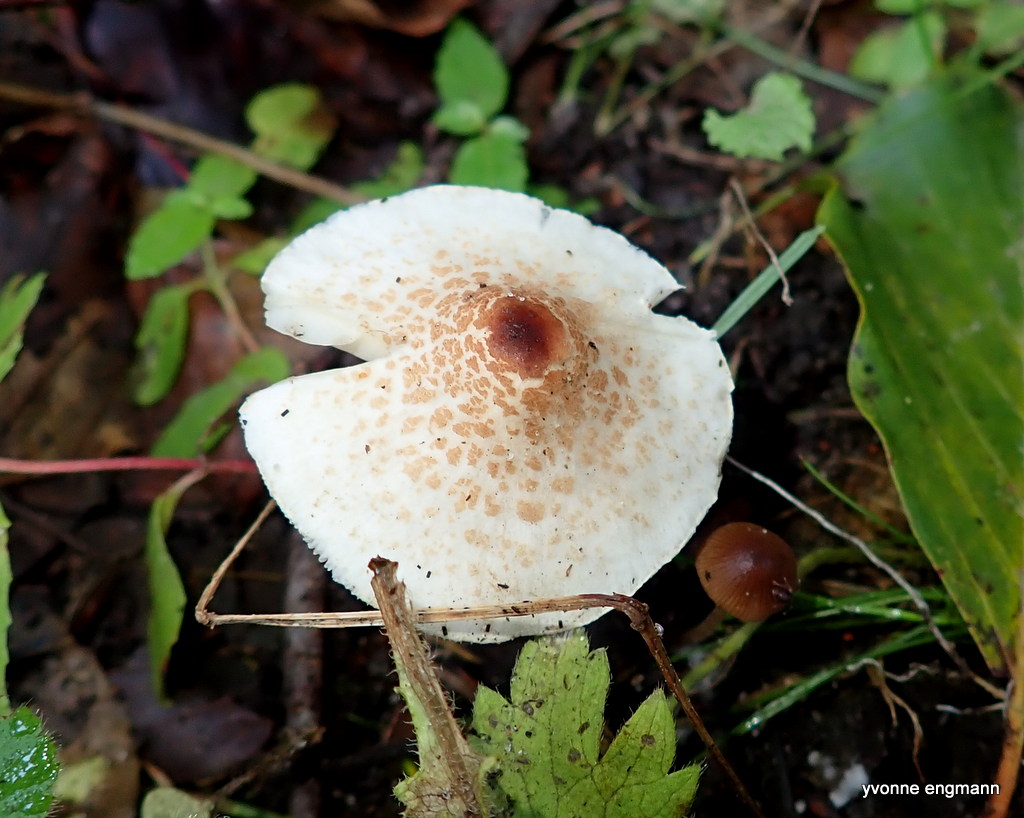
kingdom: Fungi
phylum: Basidiomycota
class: Agaricomycetes
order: Agaricales
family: Agaricaceae
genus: Lepiota
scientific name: Lepiota cristata
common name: stinkende parasolhat
